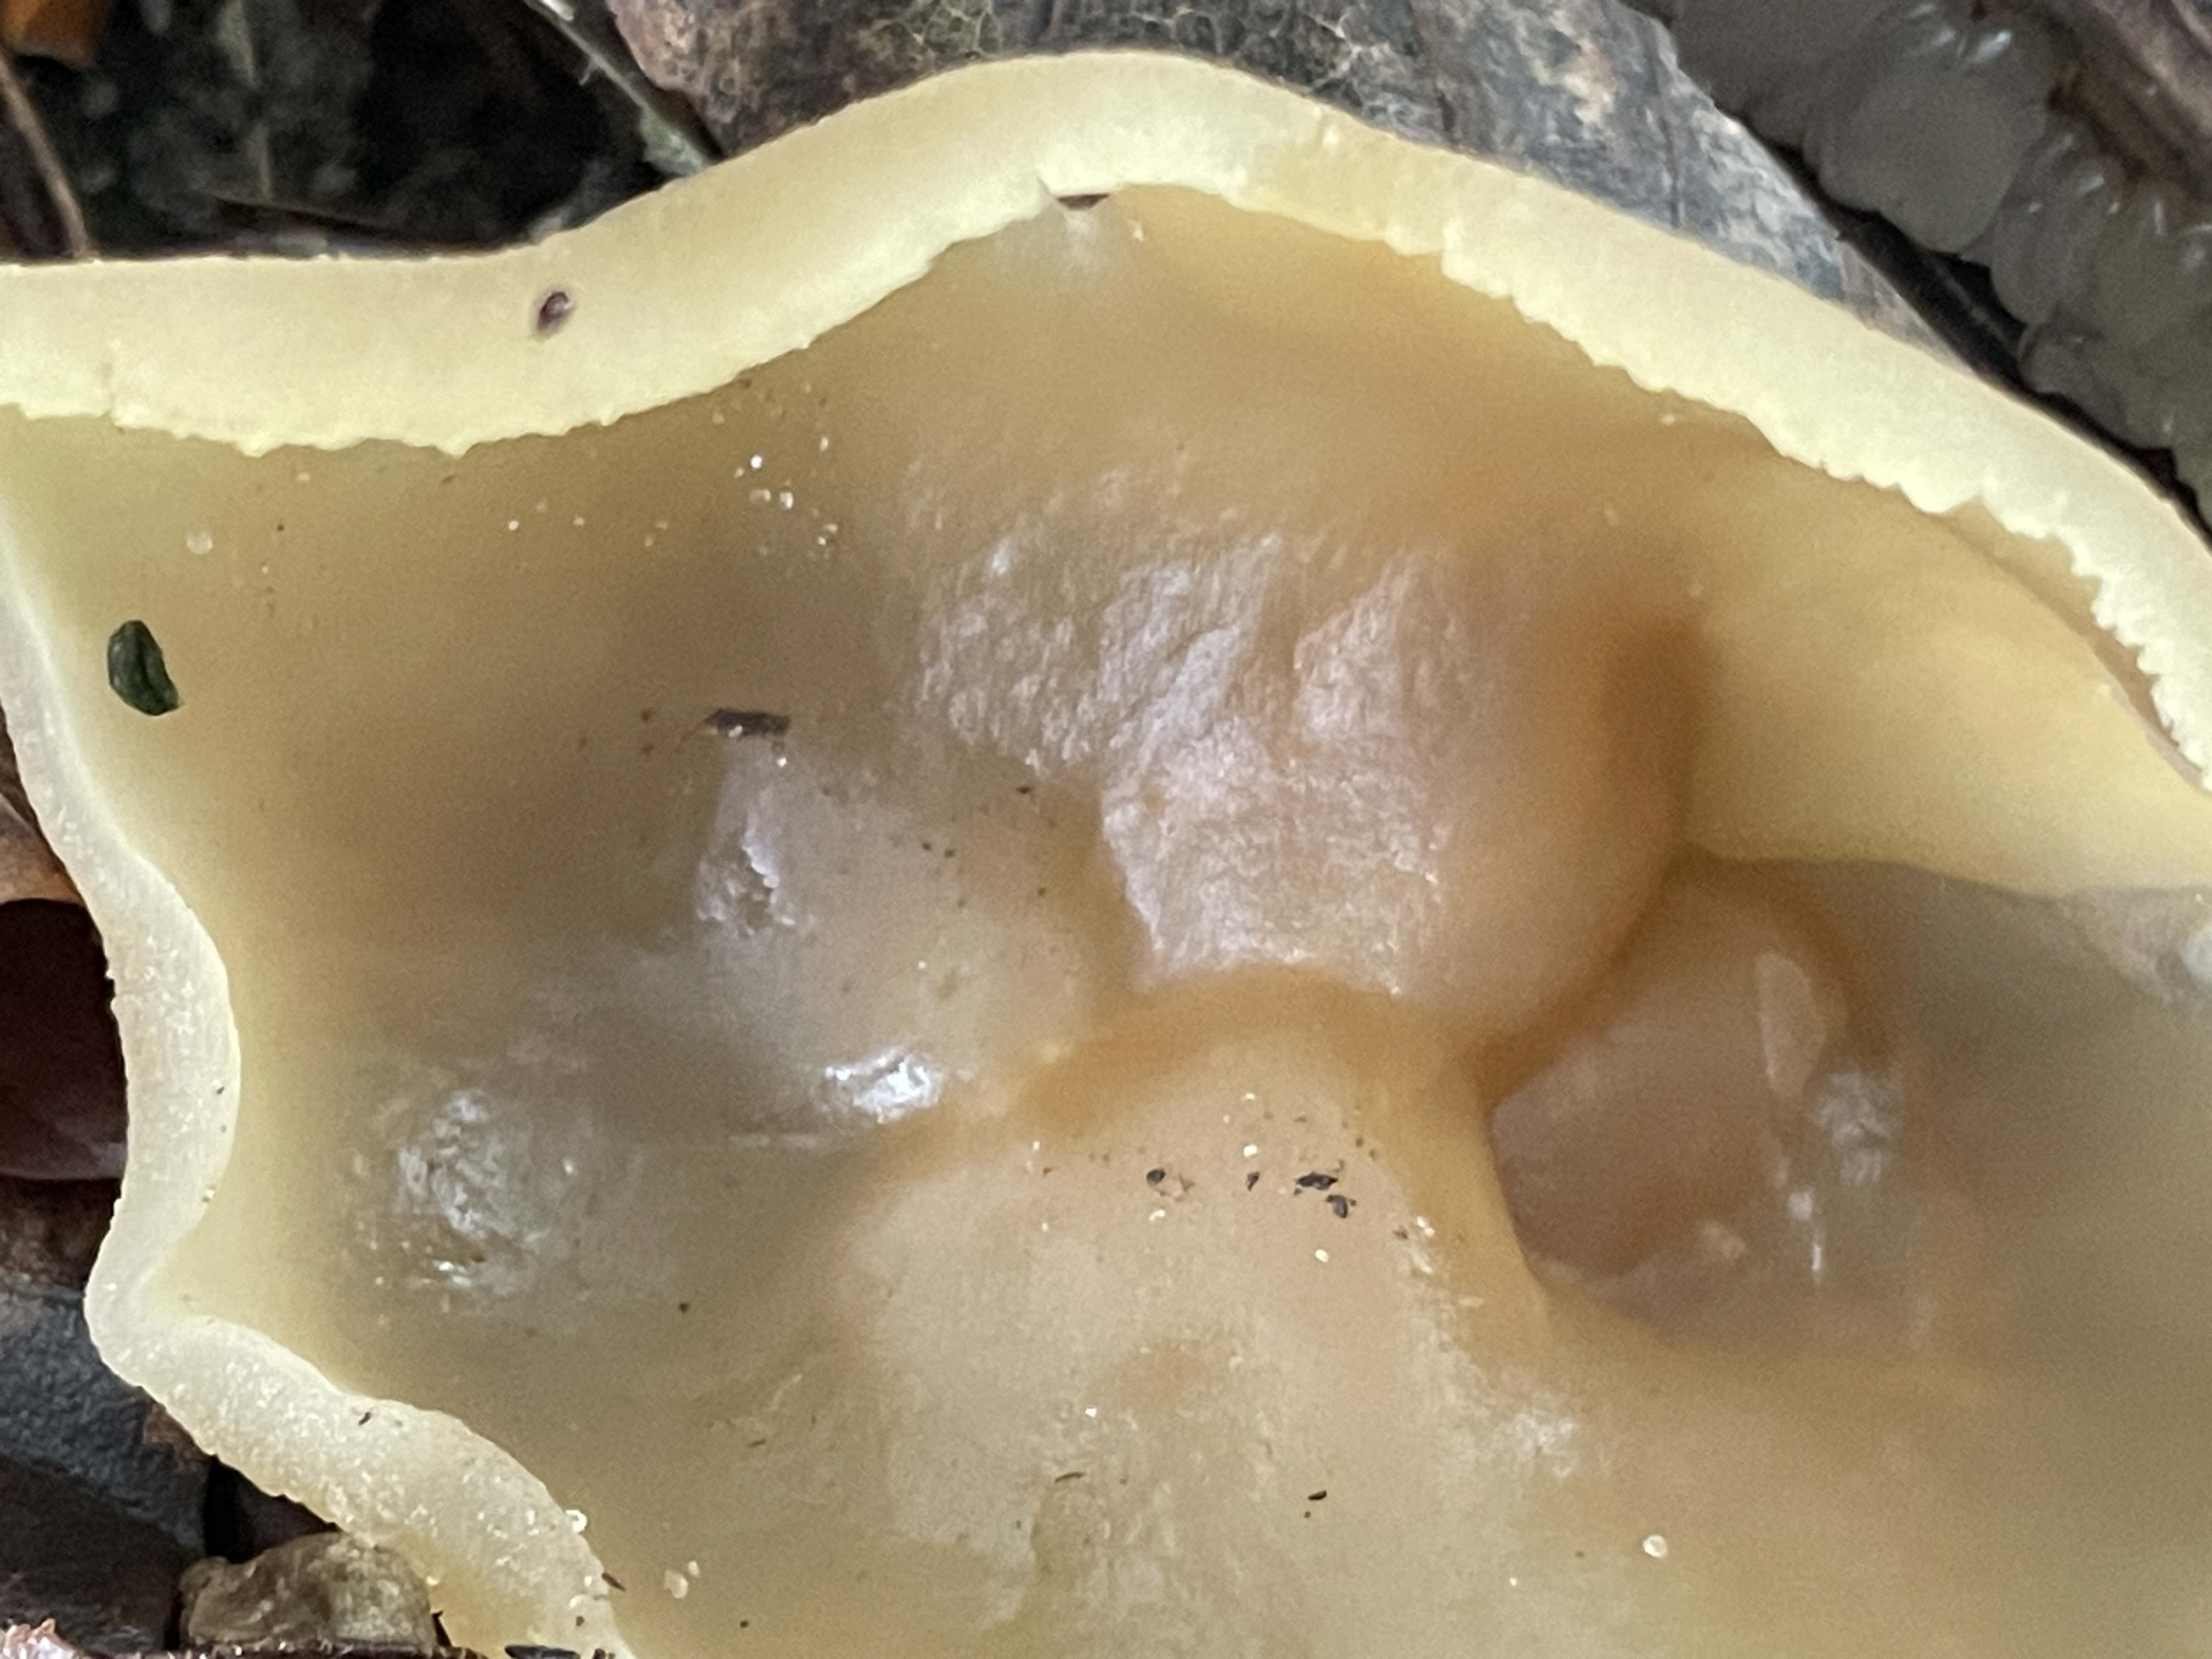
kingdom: Fungi
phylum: Ascomycota
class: Pezizomycetes
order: Pezizales
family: Pezizaceae
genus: Peziza
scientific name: Peziza arvernensis
